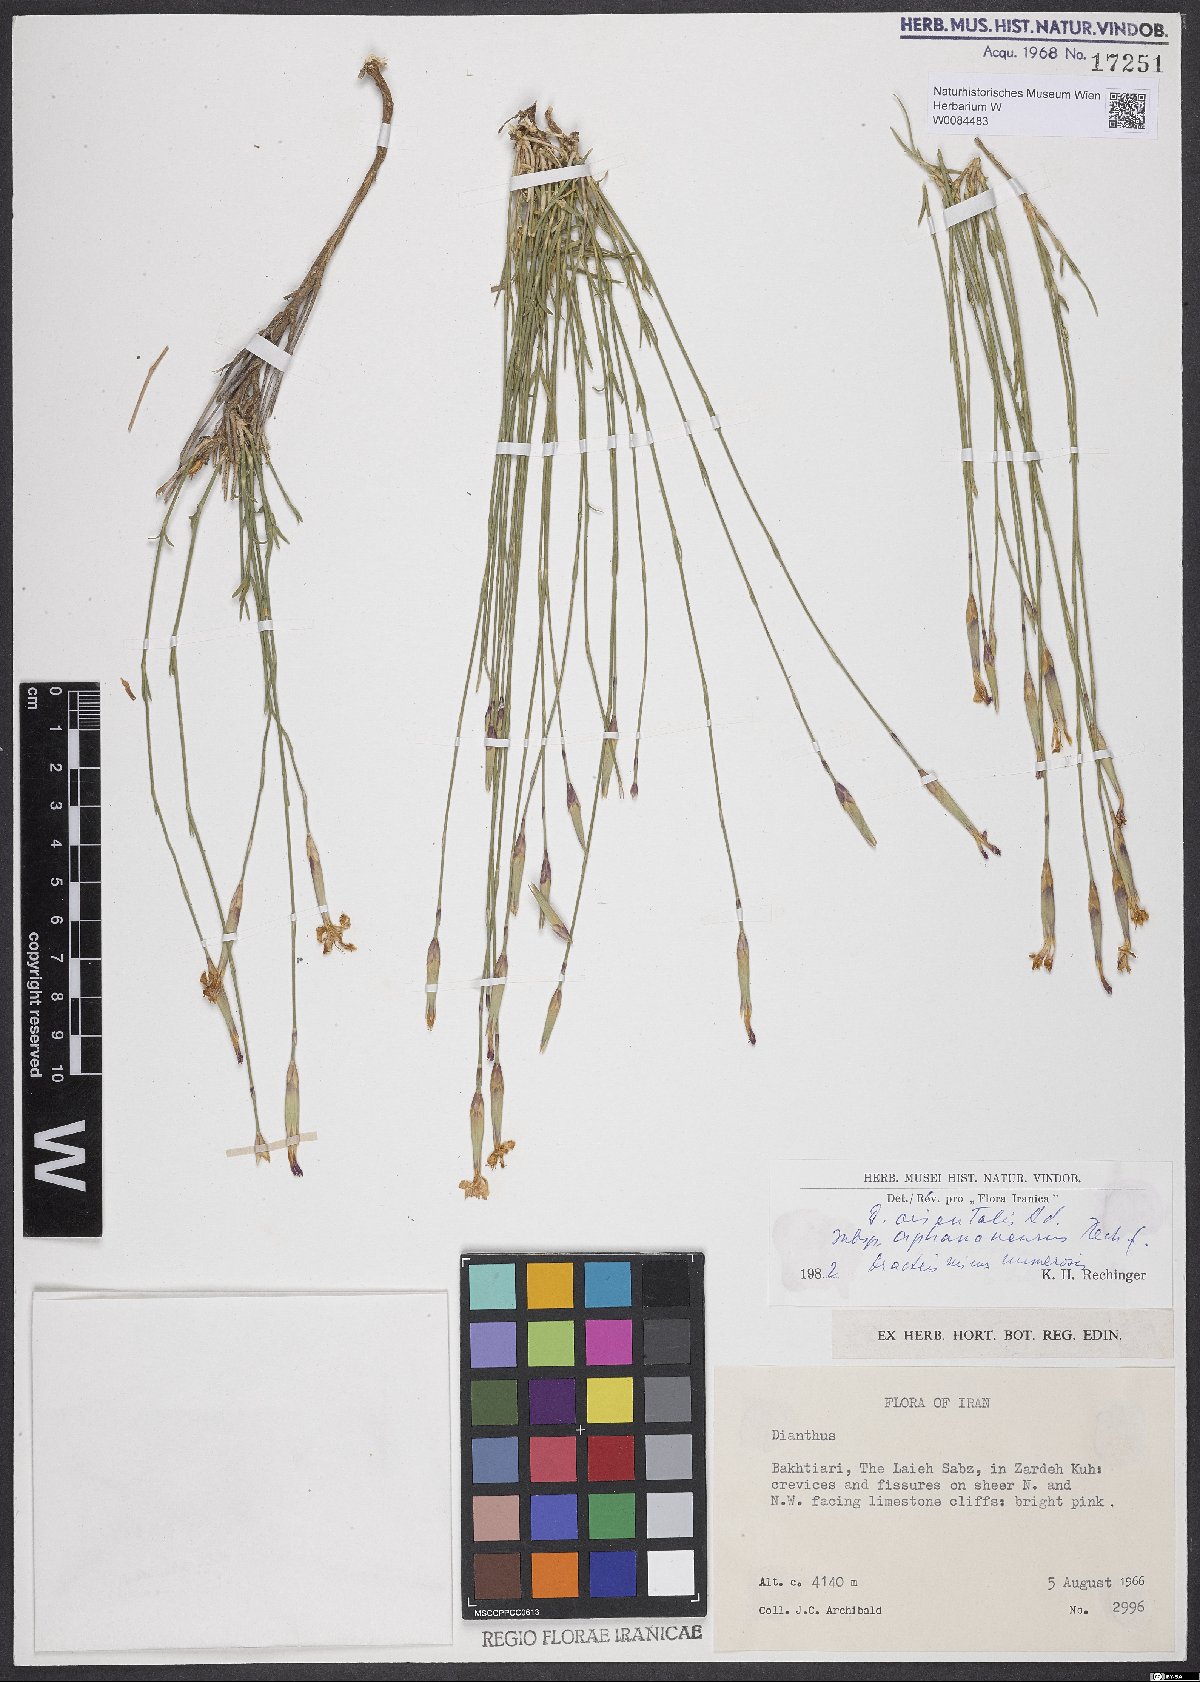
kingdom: Plantae
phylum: Tracheophyta
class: Magnoliopsida
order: Caryophyllales
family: Caryophyllaceae
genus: Dianthus
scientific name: Dianthus orientalis
